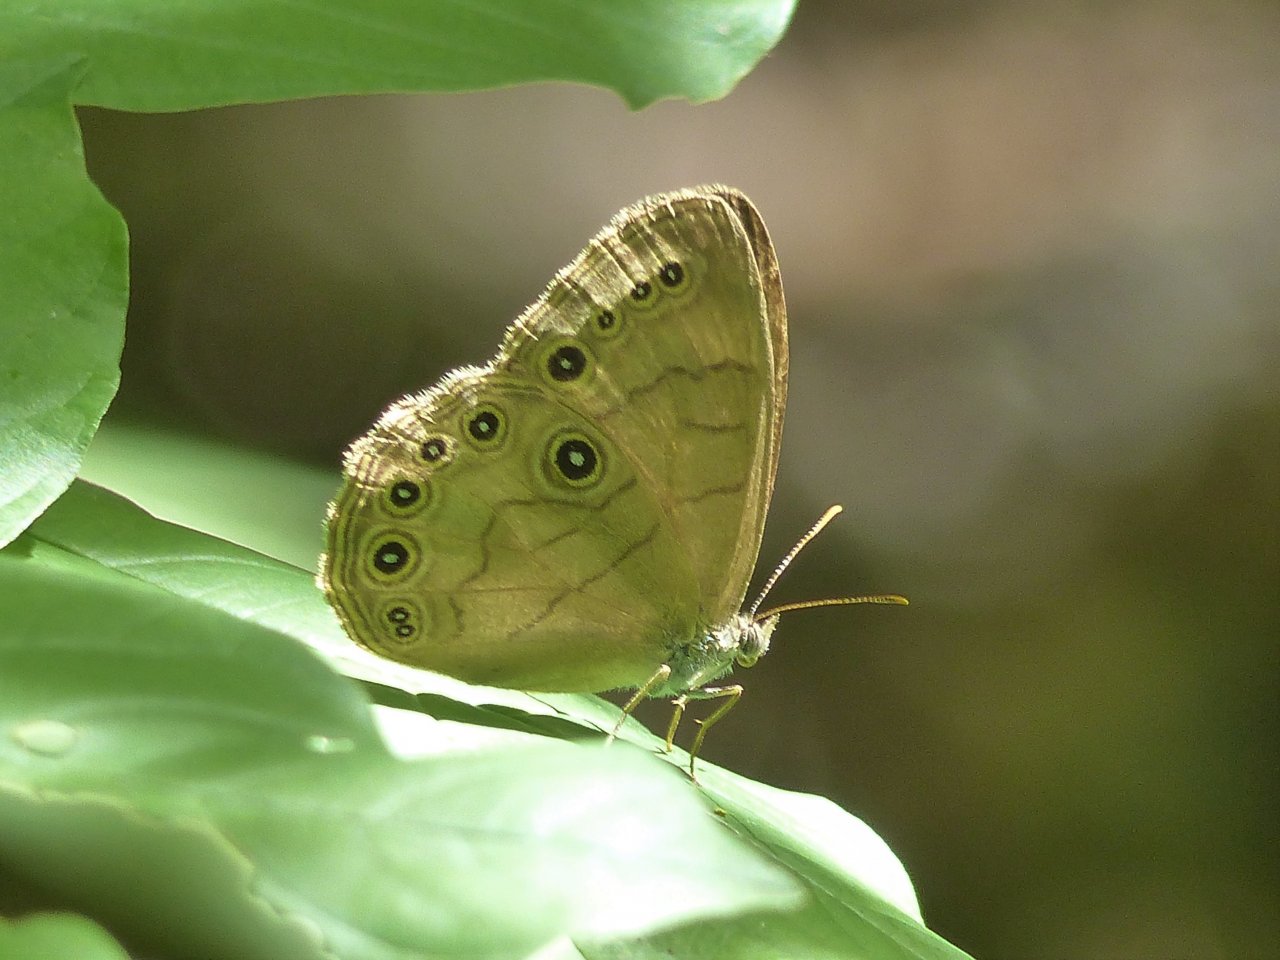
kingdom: Animalia
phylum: Arthropoda
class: Insecta
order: Lepidoptera
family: Nymphalidae
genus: Lethe
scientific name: Lethe eurydice
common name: Appalachian Eyed Brown
